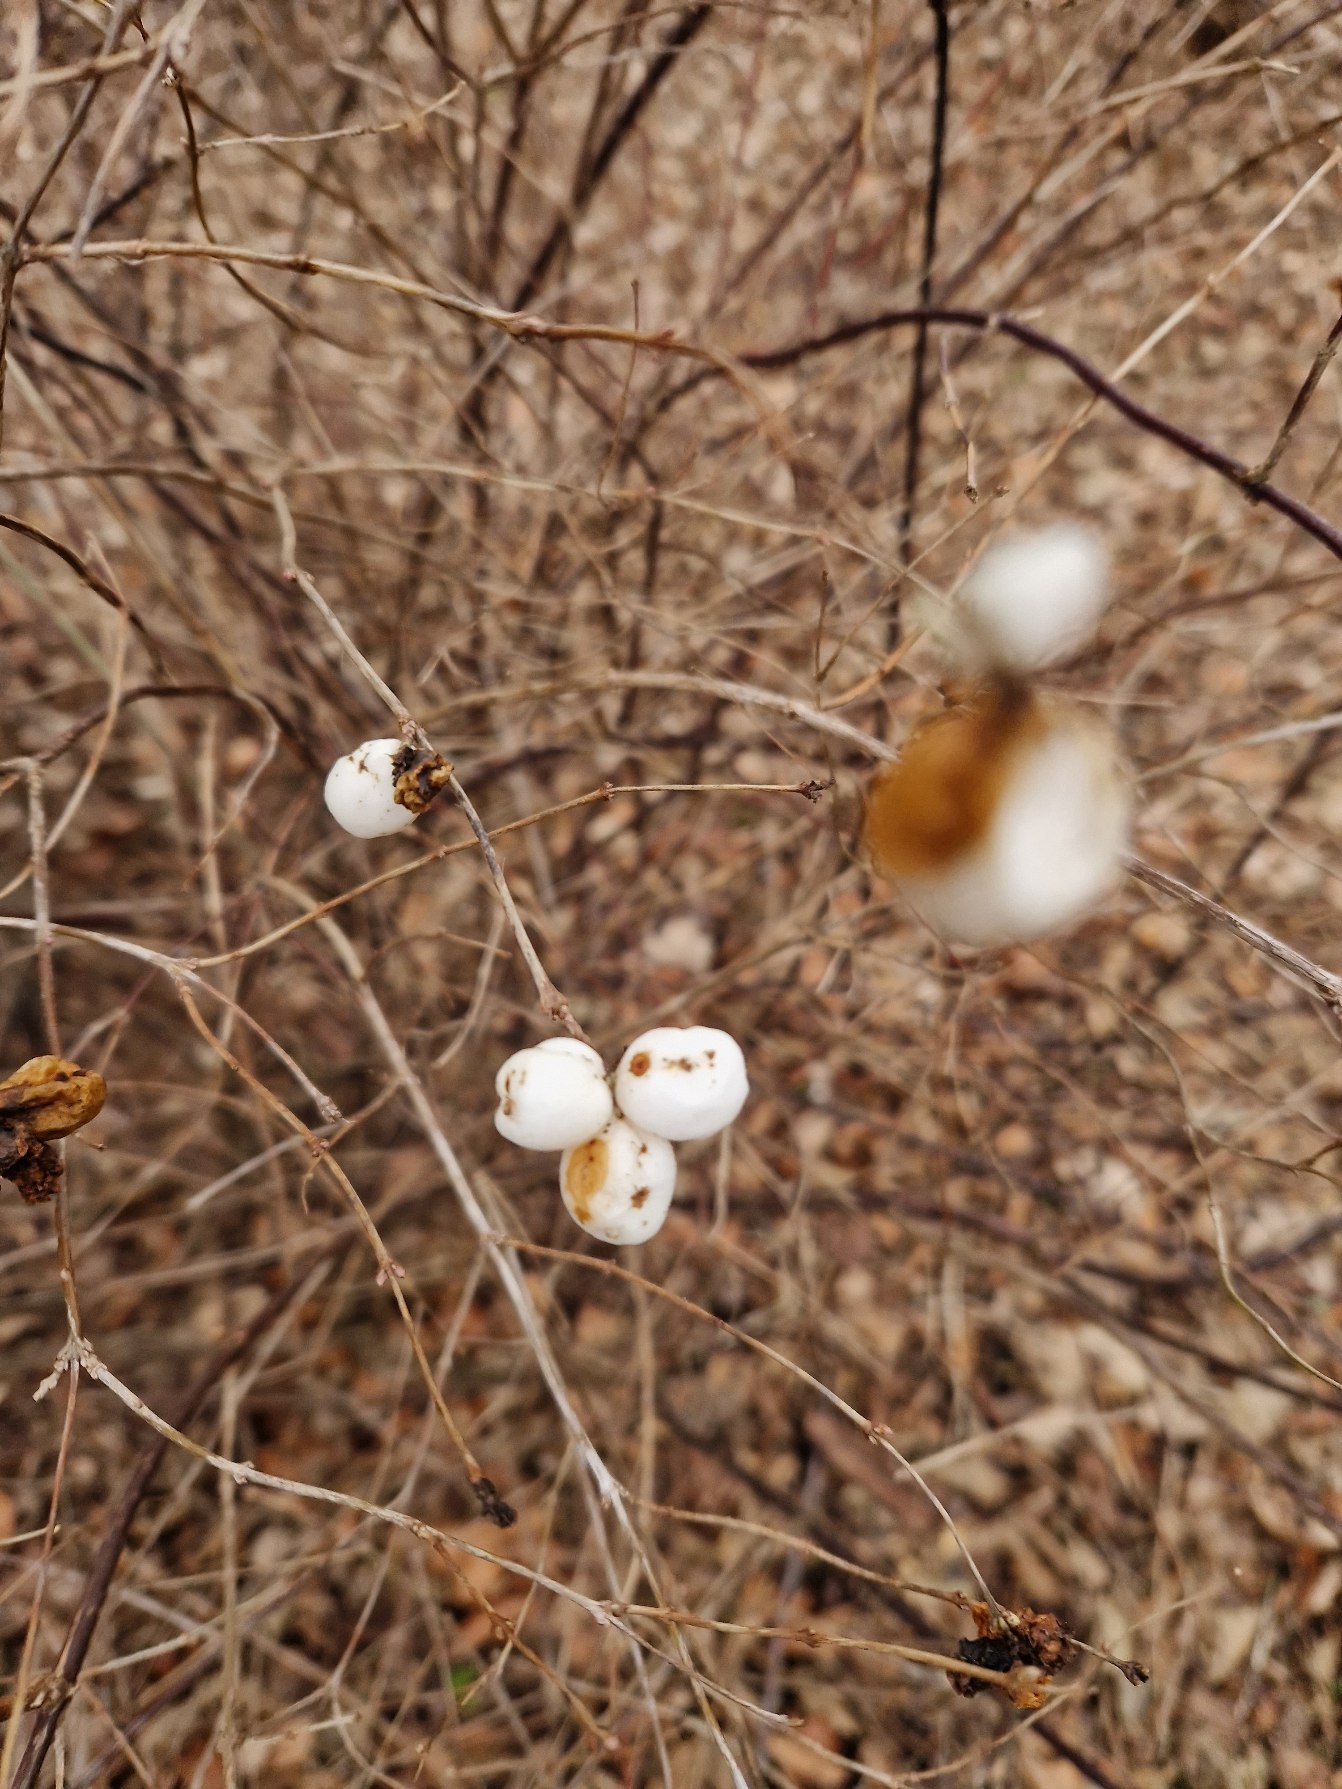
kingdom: Plantae
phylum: Tracheophyta
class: Magnoliopsida
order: Dipsacales
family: Caprifoliaceae
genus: Symphoricarpos
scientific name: Symphoricarpos albus
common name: Almindelig snebær
